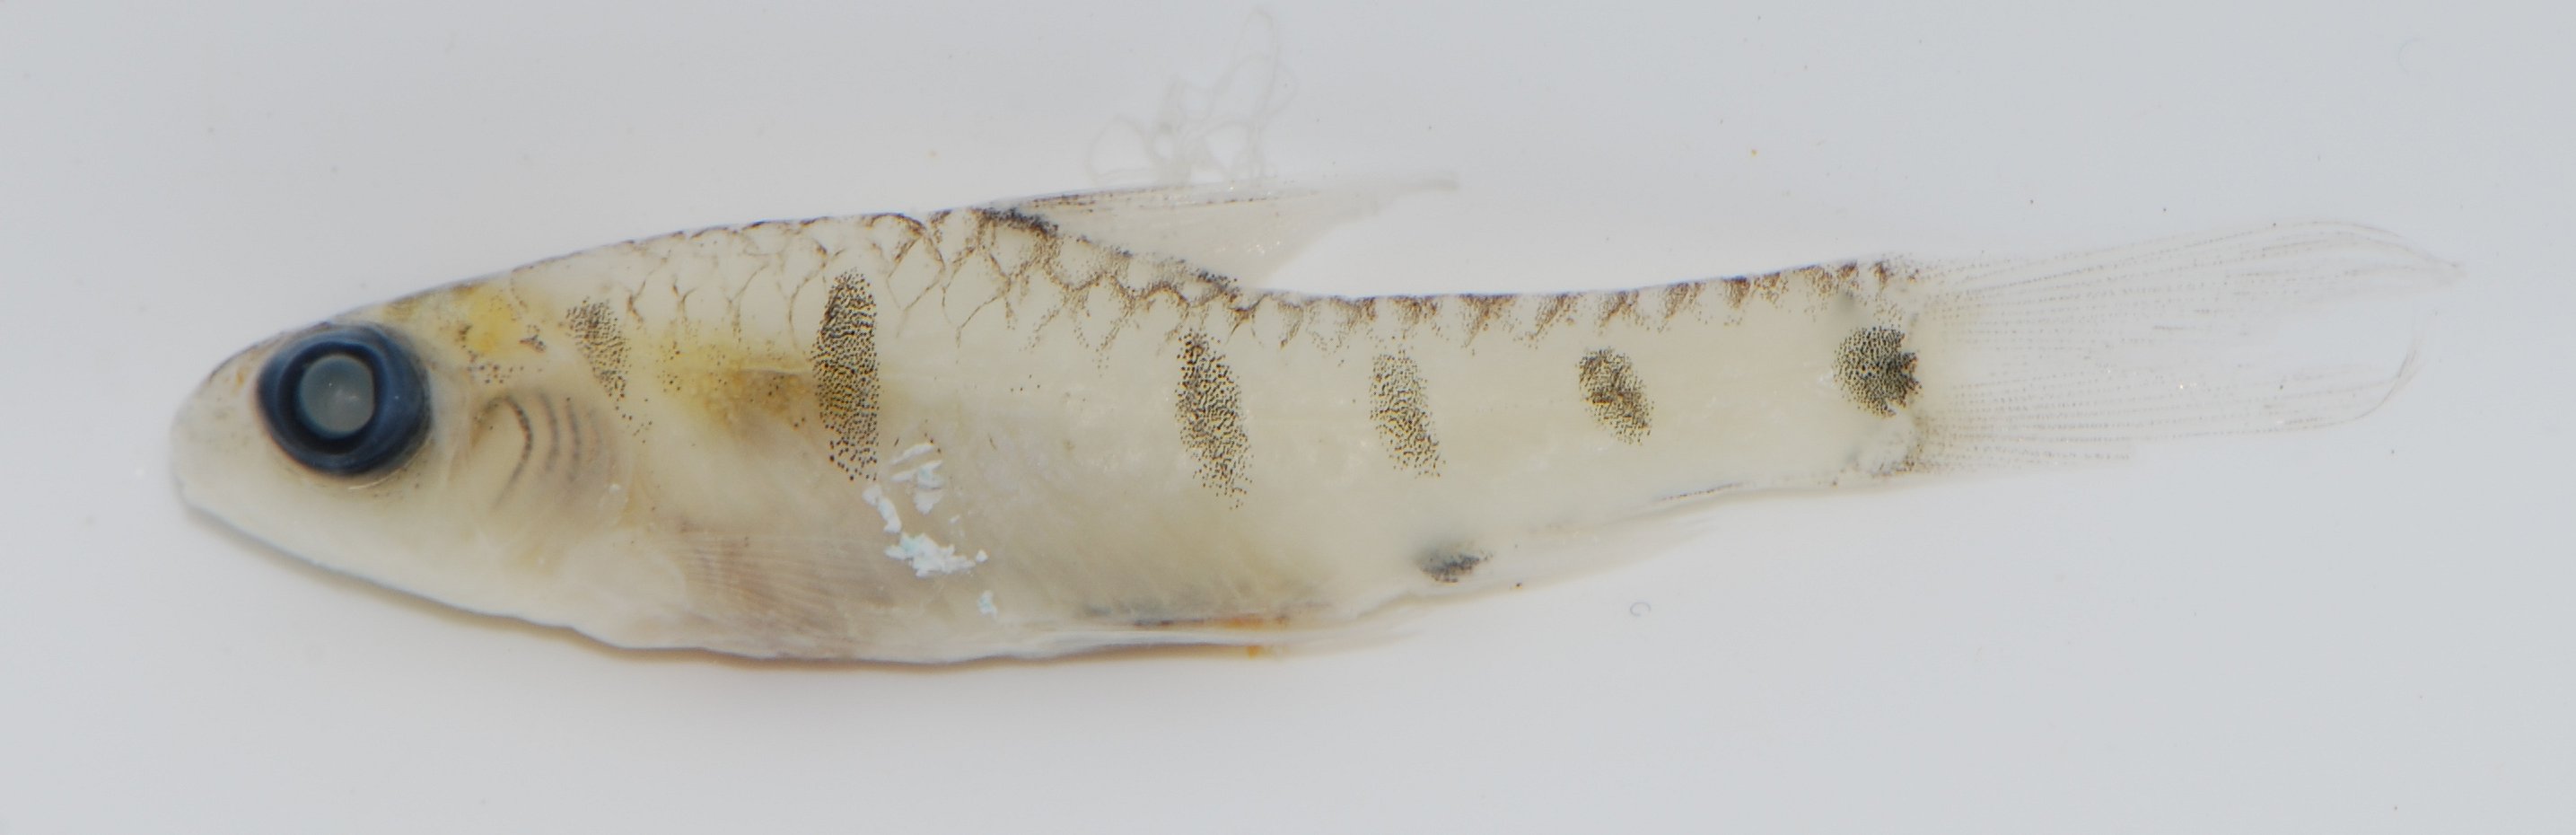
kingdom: Animalia
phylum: Chordata
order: Cypriniformes
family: Cyprinidae
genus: Enteromius
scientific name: Enteromius collarti
